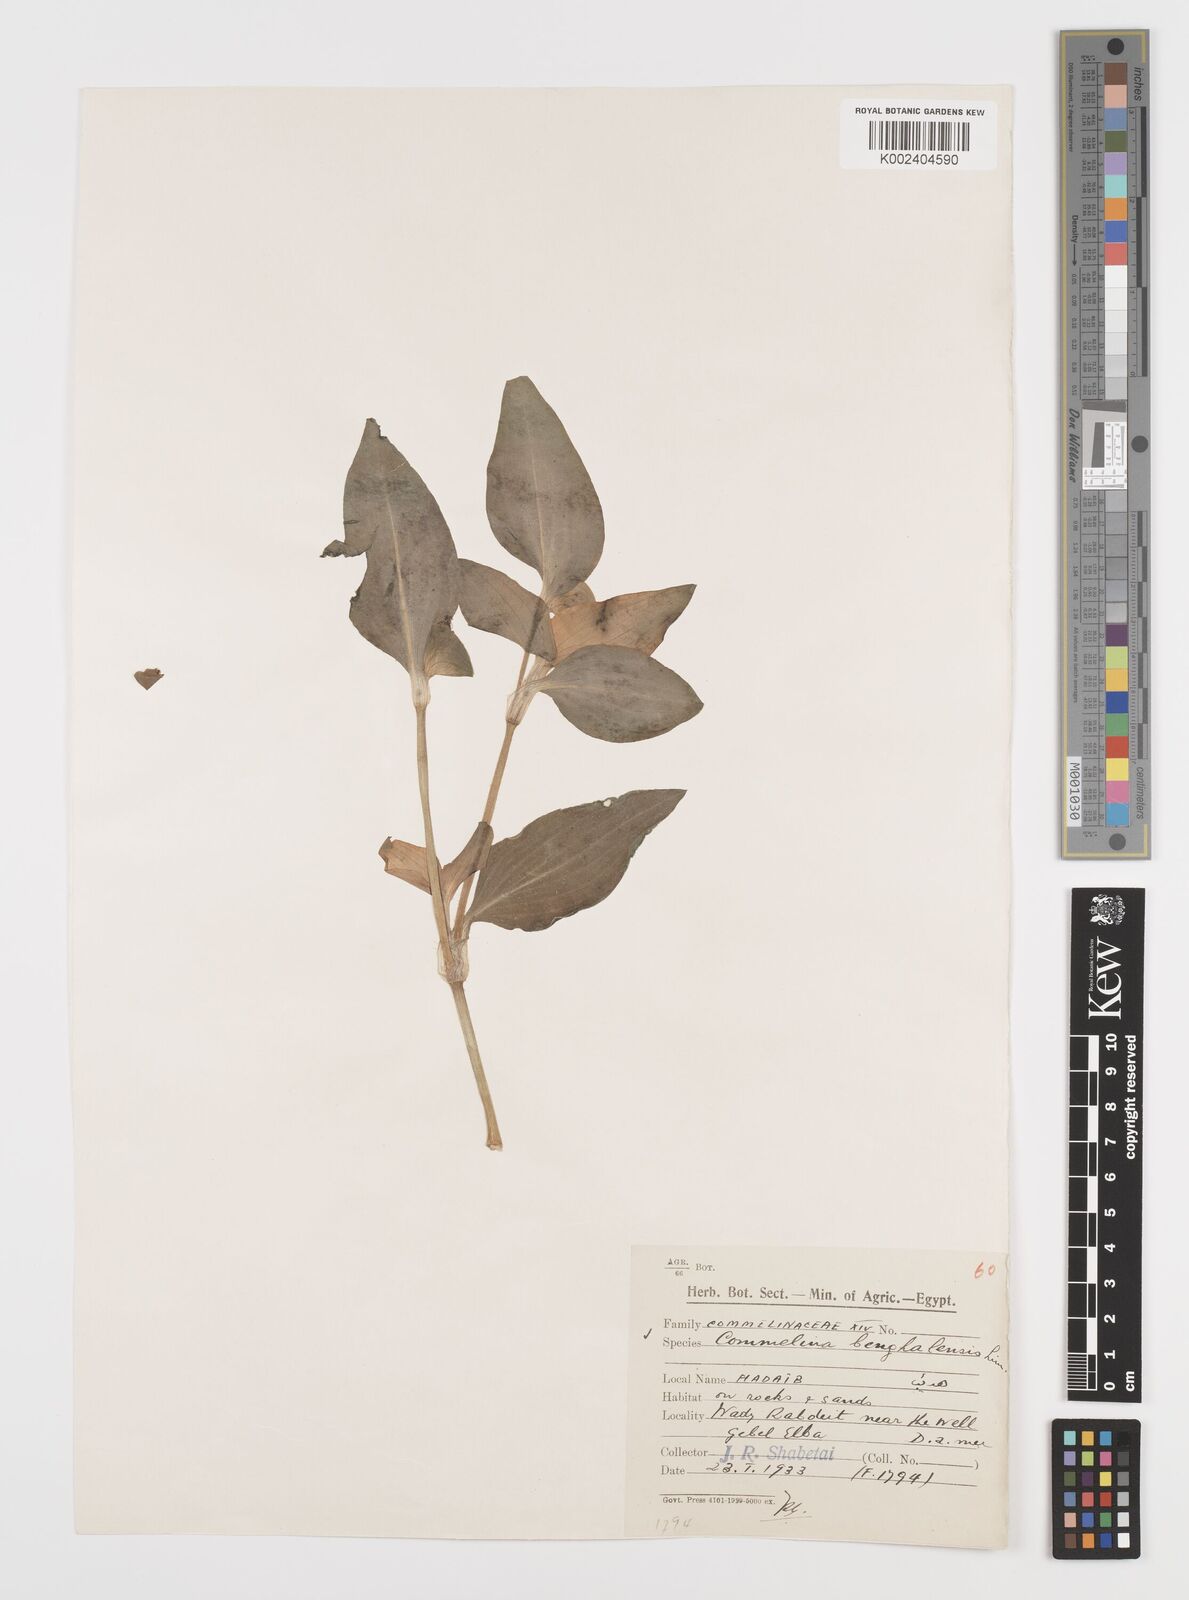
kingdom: Plantae
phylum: Tracheophyta
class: Liliopsida
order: Commelinales
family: Commelinaceae
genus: Commelina
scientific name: Commelina benghalensis
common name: Jio
